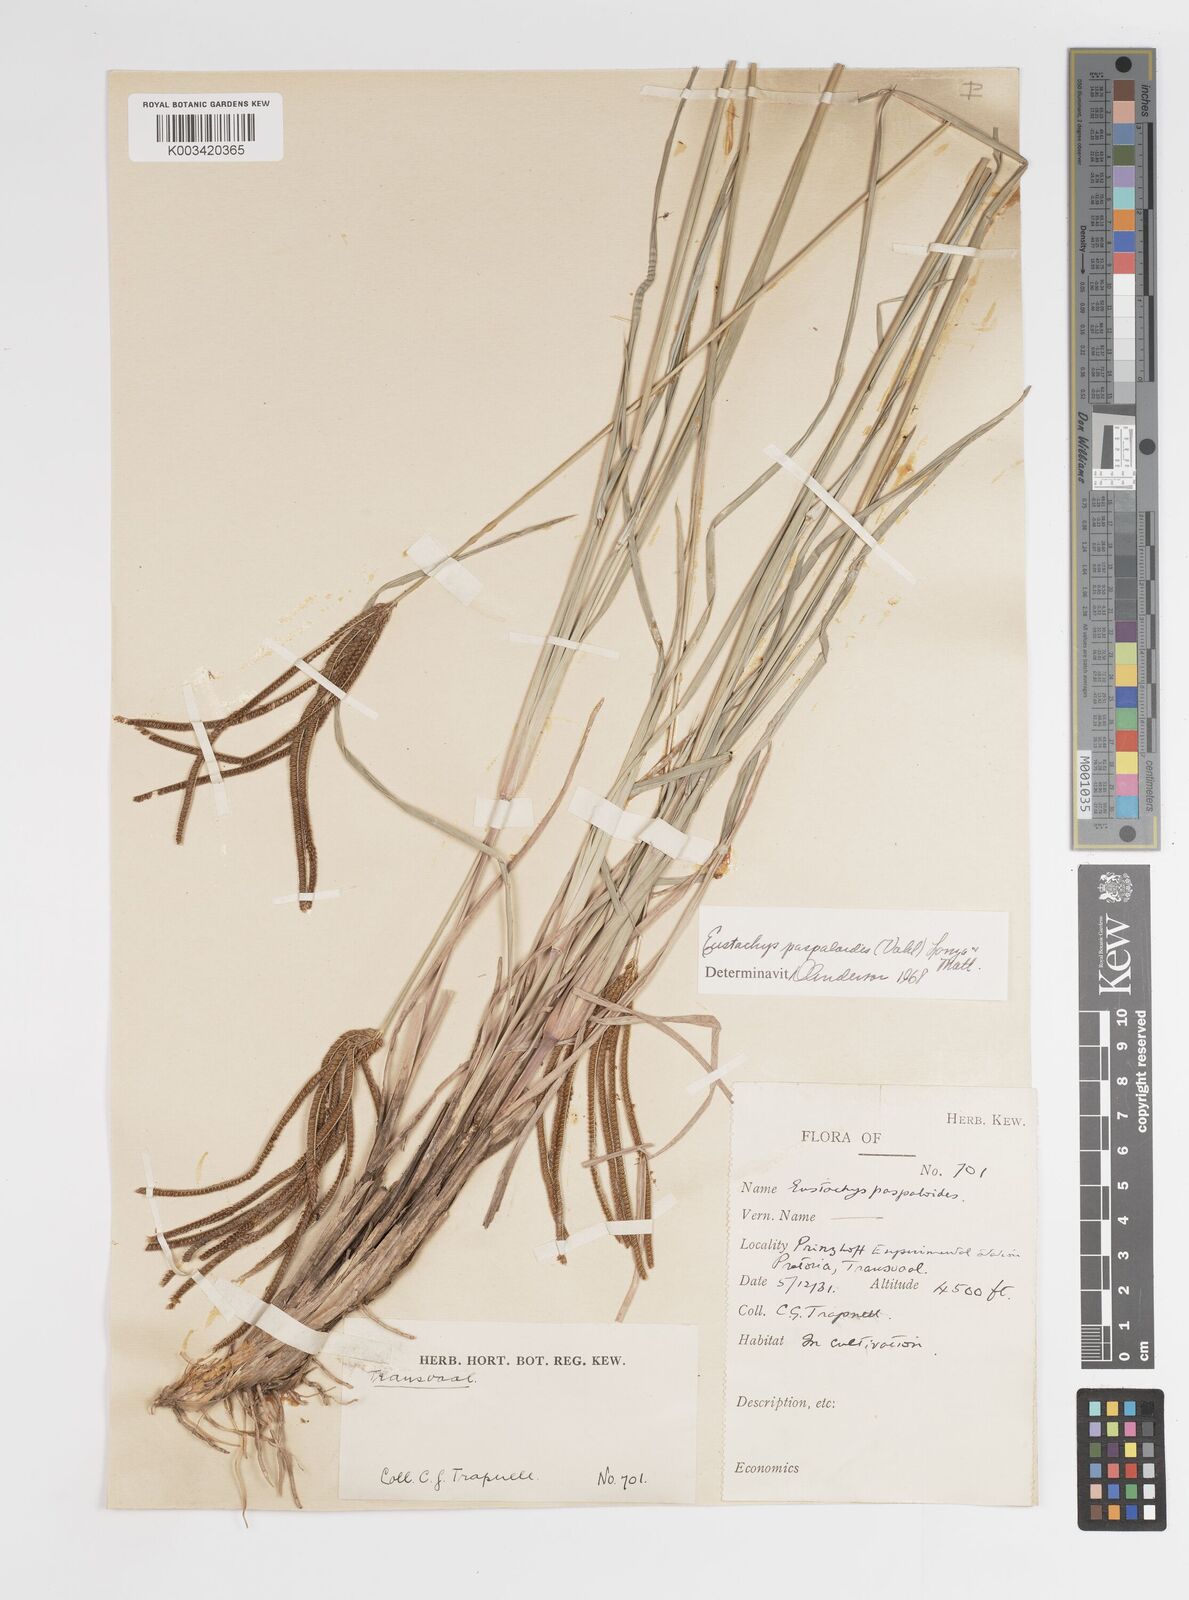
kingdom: Plantae
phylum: Tracheophyta
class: Liliopsida
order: Poales
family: Poaceae
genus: Eustachys
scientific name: Eustachys paspaloides
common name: Caribbean fingergrass
